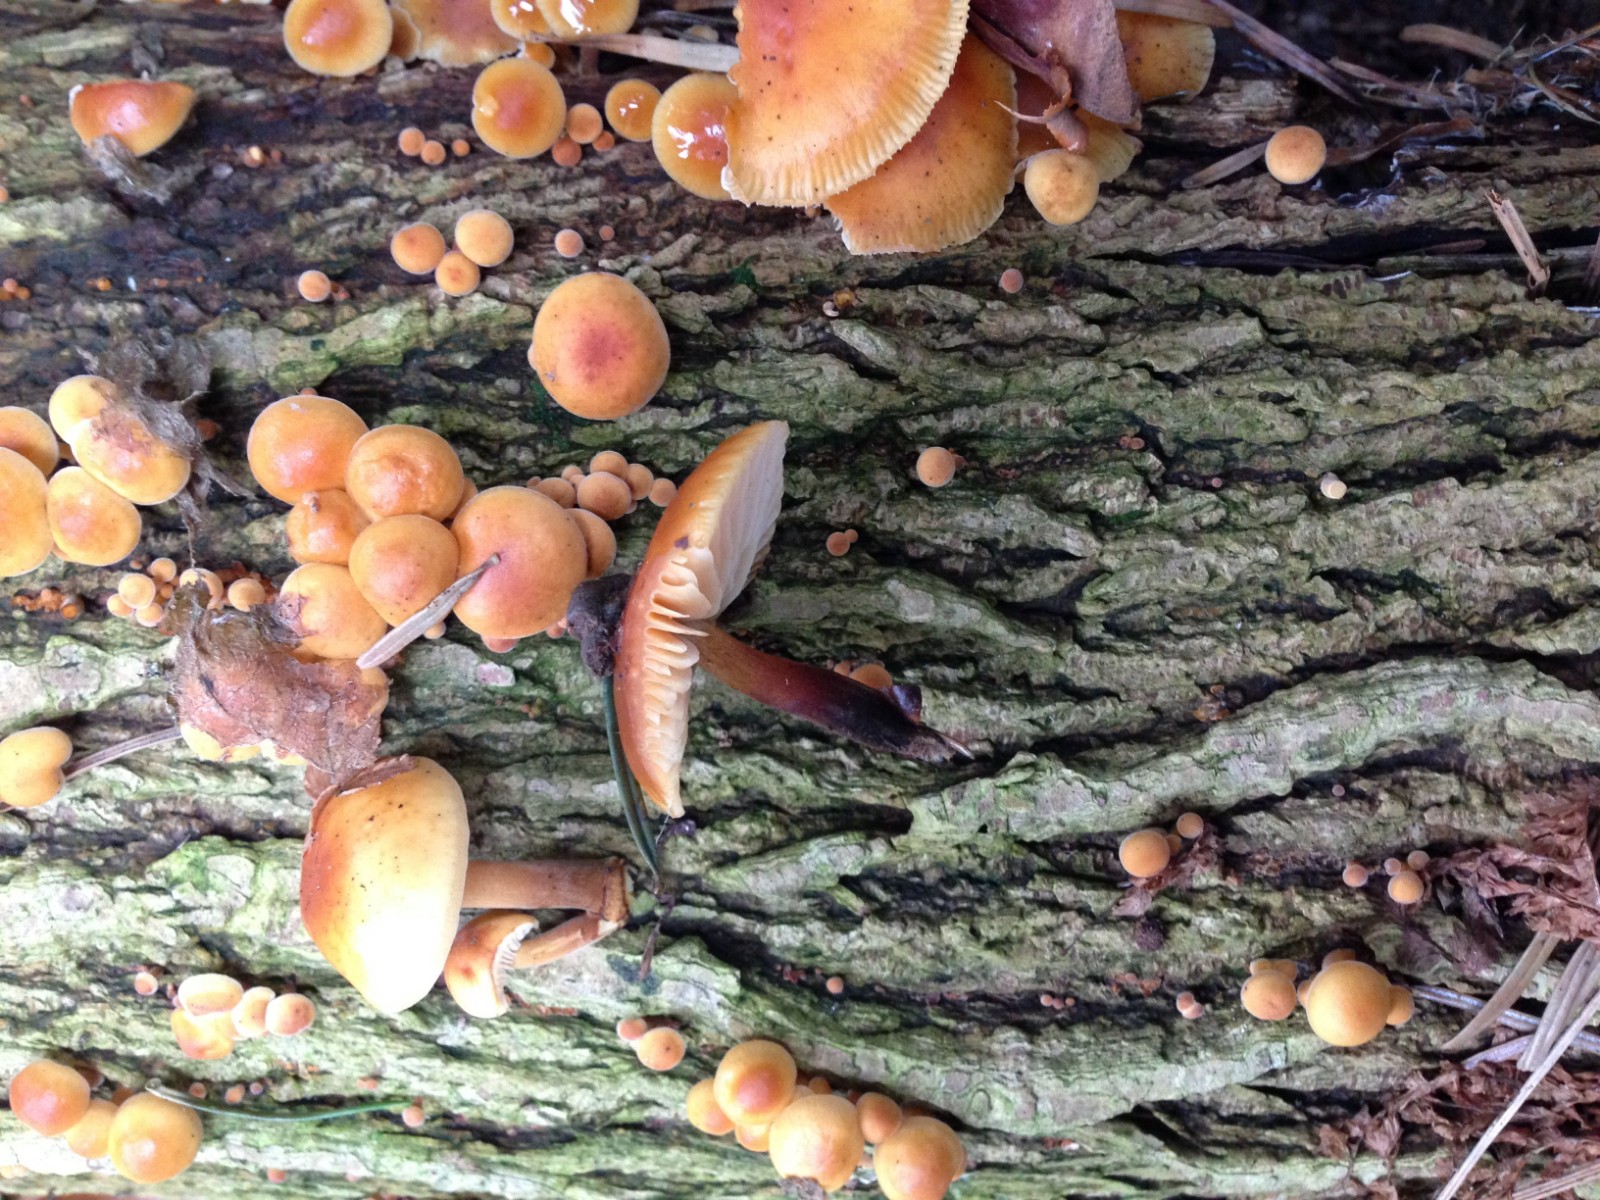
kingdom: Fungi
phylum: Basidiomycota
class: Agaricomycetes
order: Agaricales
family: Physalacriaceae
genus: Flammulina
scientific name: Flammulina velutipes
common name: gul fløjlsfod
